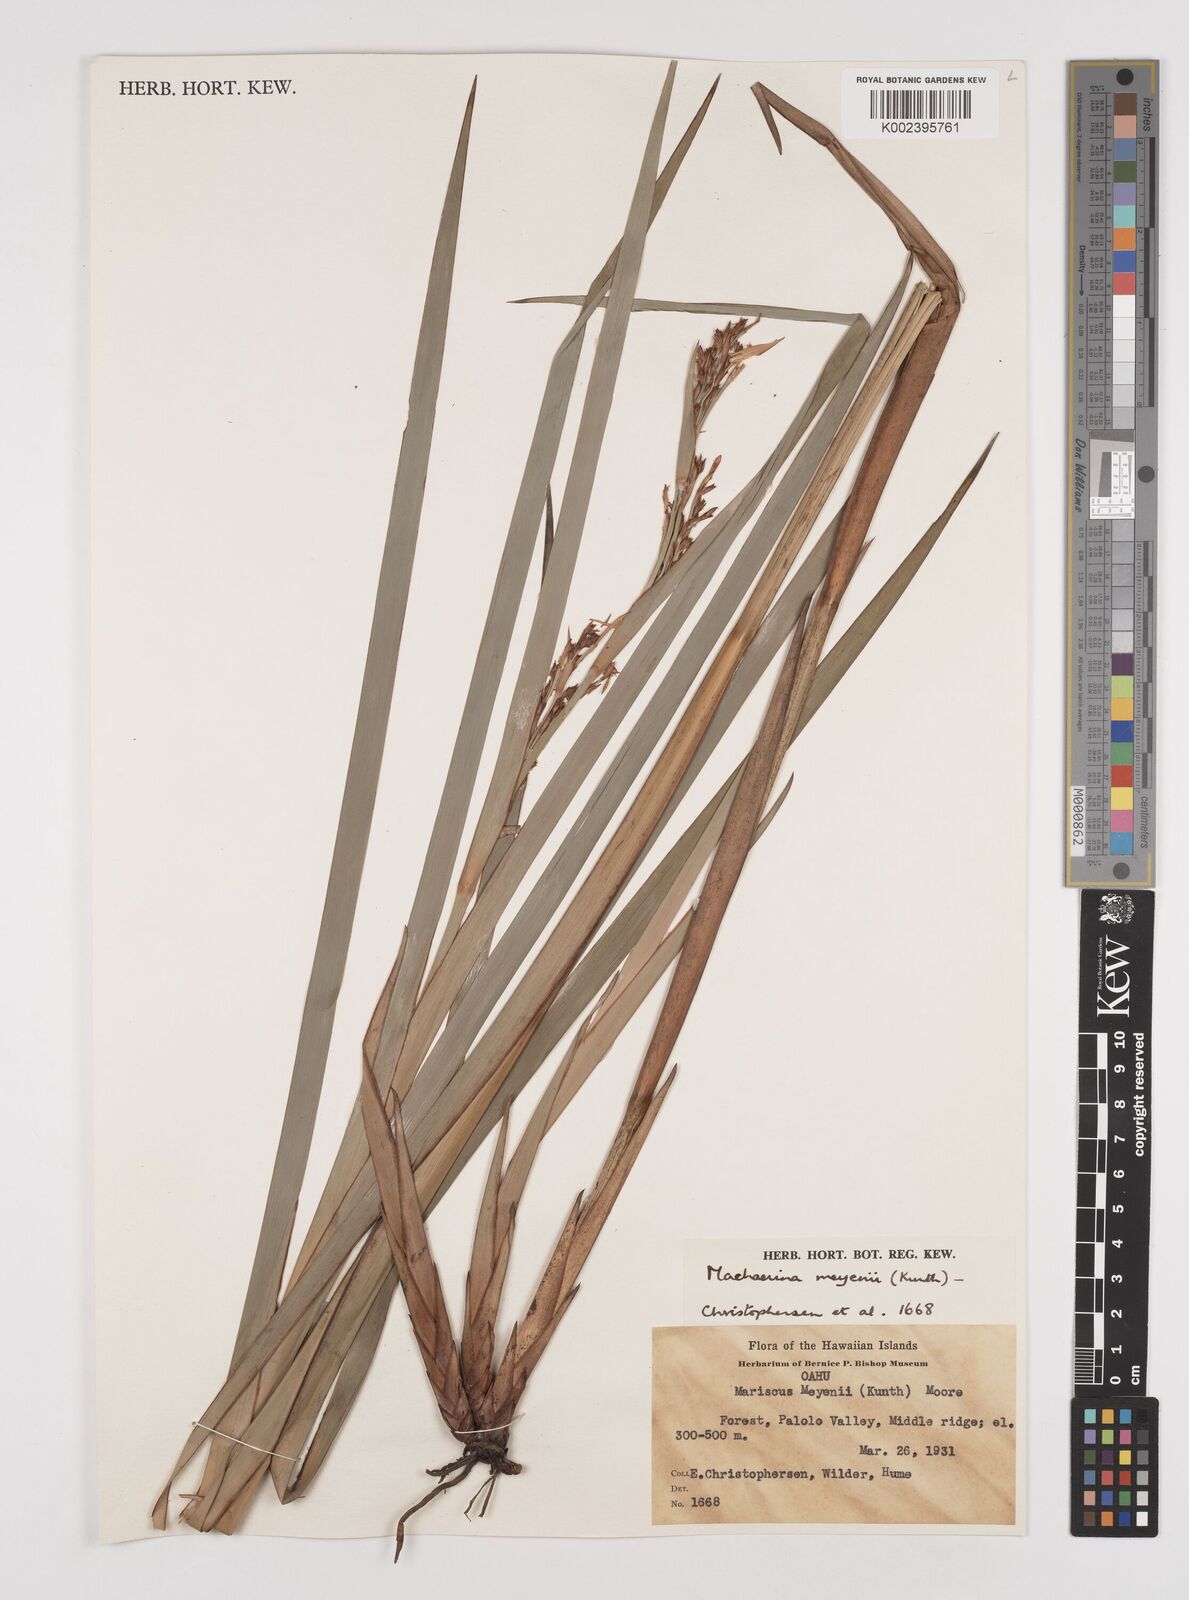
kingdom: Plantae
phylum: Tracheophyta
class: Liliopsida
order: Poales
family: Cyperaceae
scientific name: Cyperaceae
